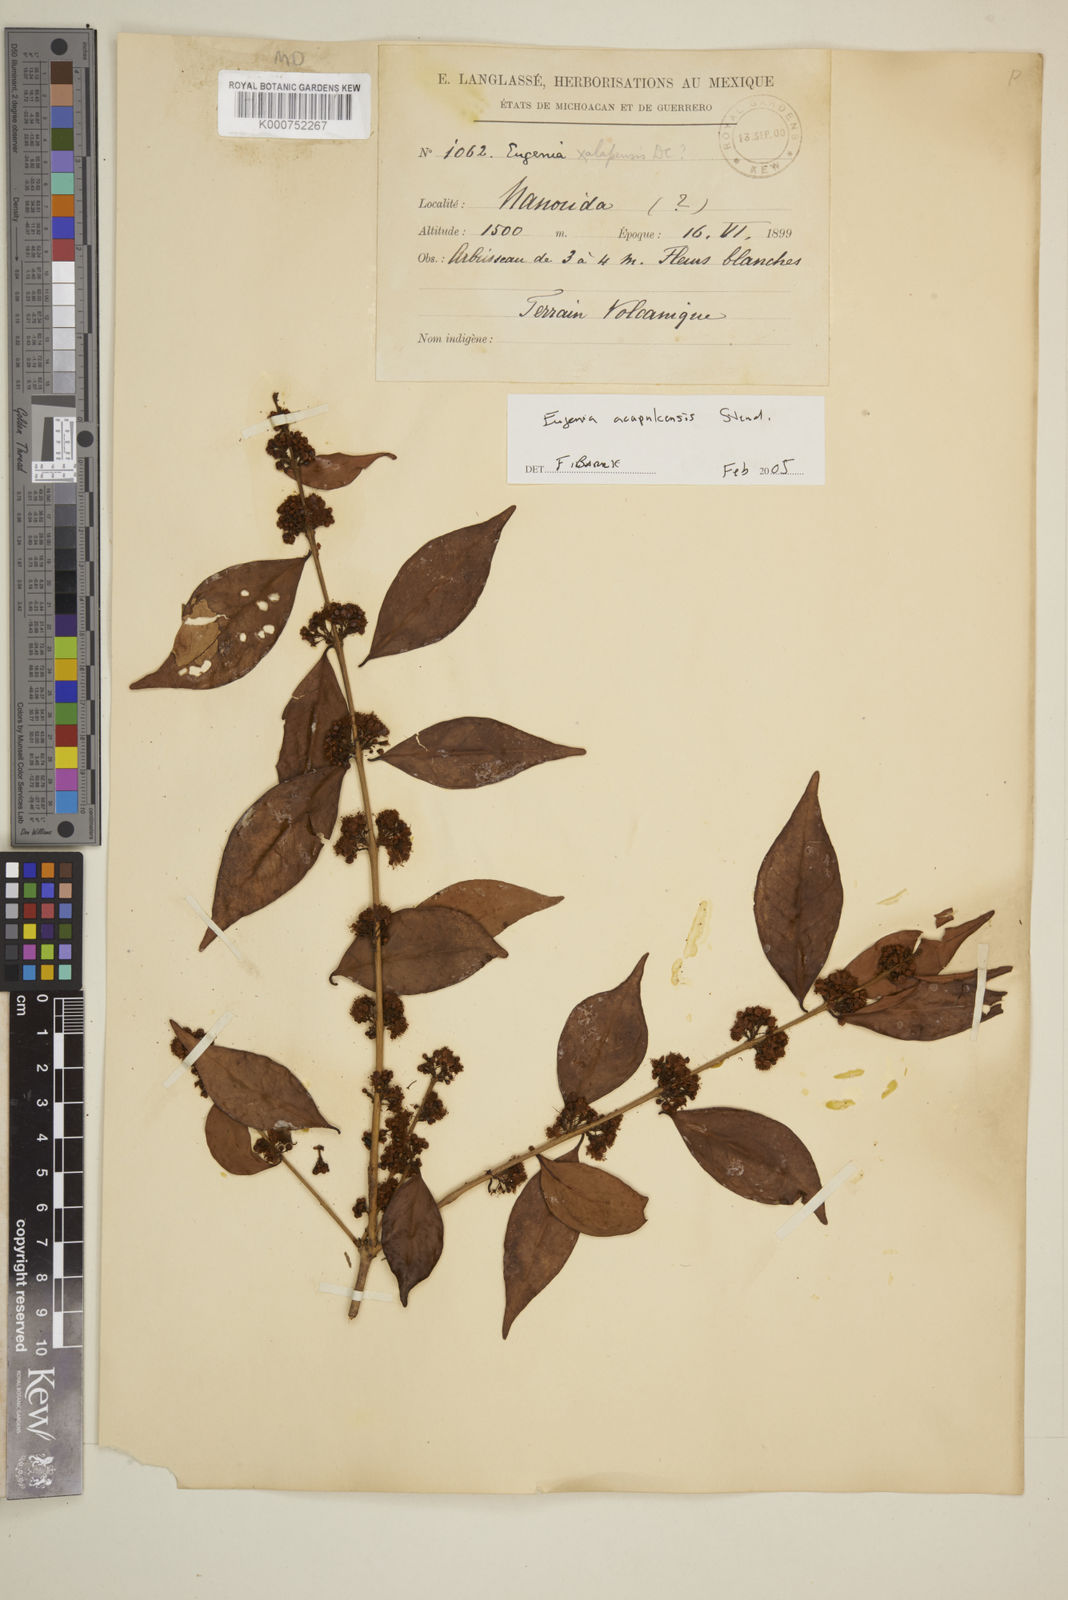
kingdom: Plantae
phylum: Tracheophyta
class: Magnoliopsida
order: Myrtales
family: Myrtaceae
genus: Eugenia
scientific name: Eugenia acapulcensis
